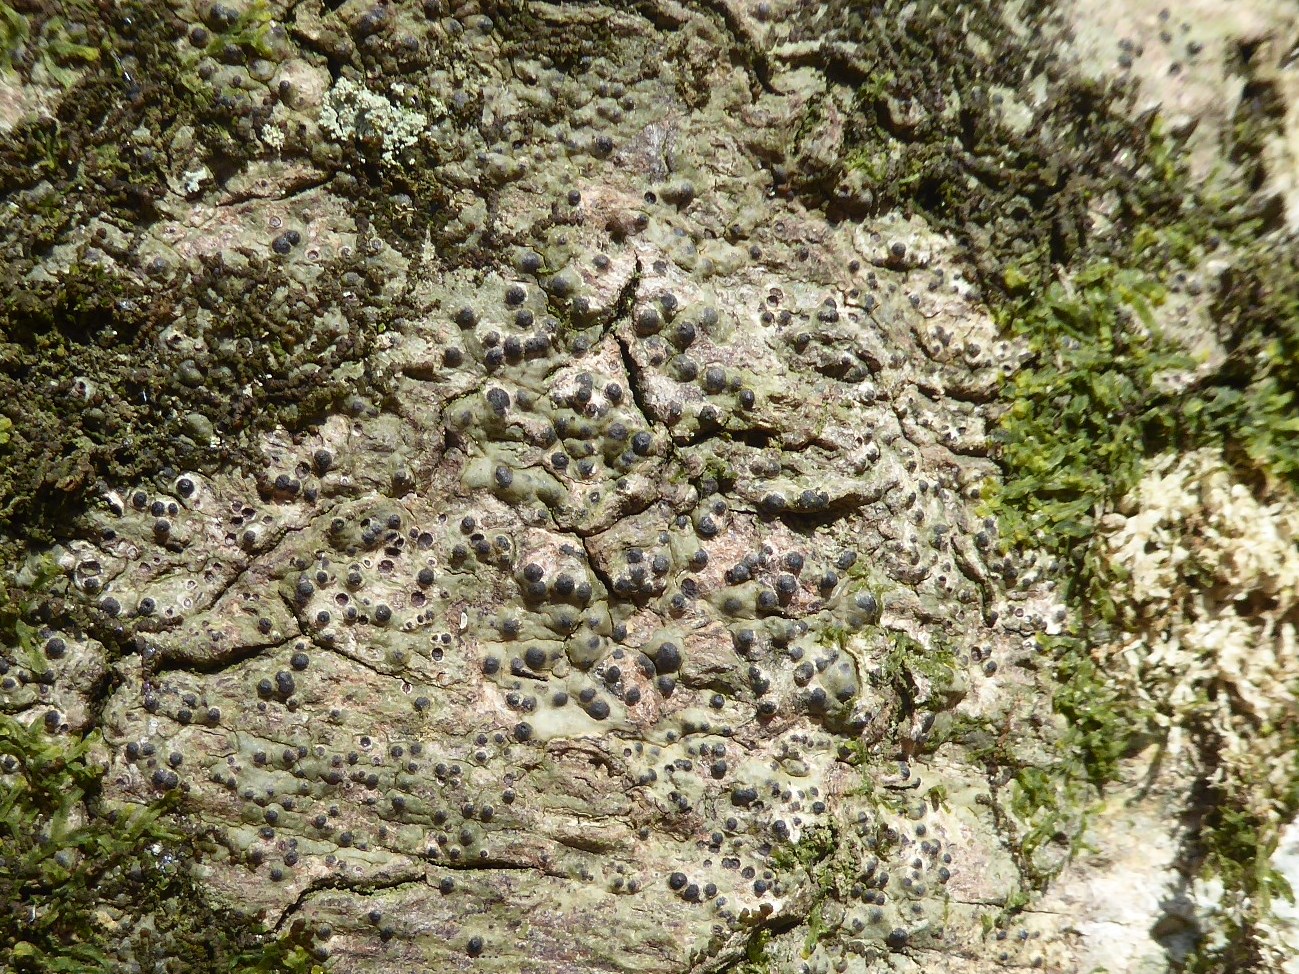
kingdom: Fungi
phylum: Ascomycota
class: Eurotiomycetes
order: Pyrenulales
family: Pyrenulaceae
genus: Pyrenula
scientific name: Pyrenula nitida
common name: glinsende kernelav
